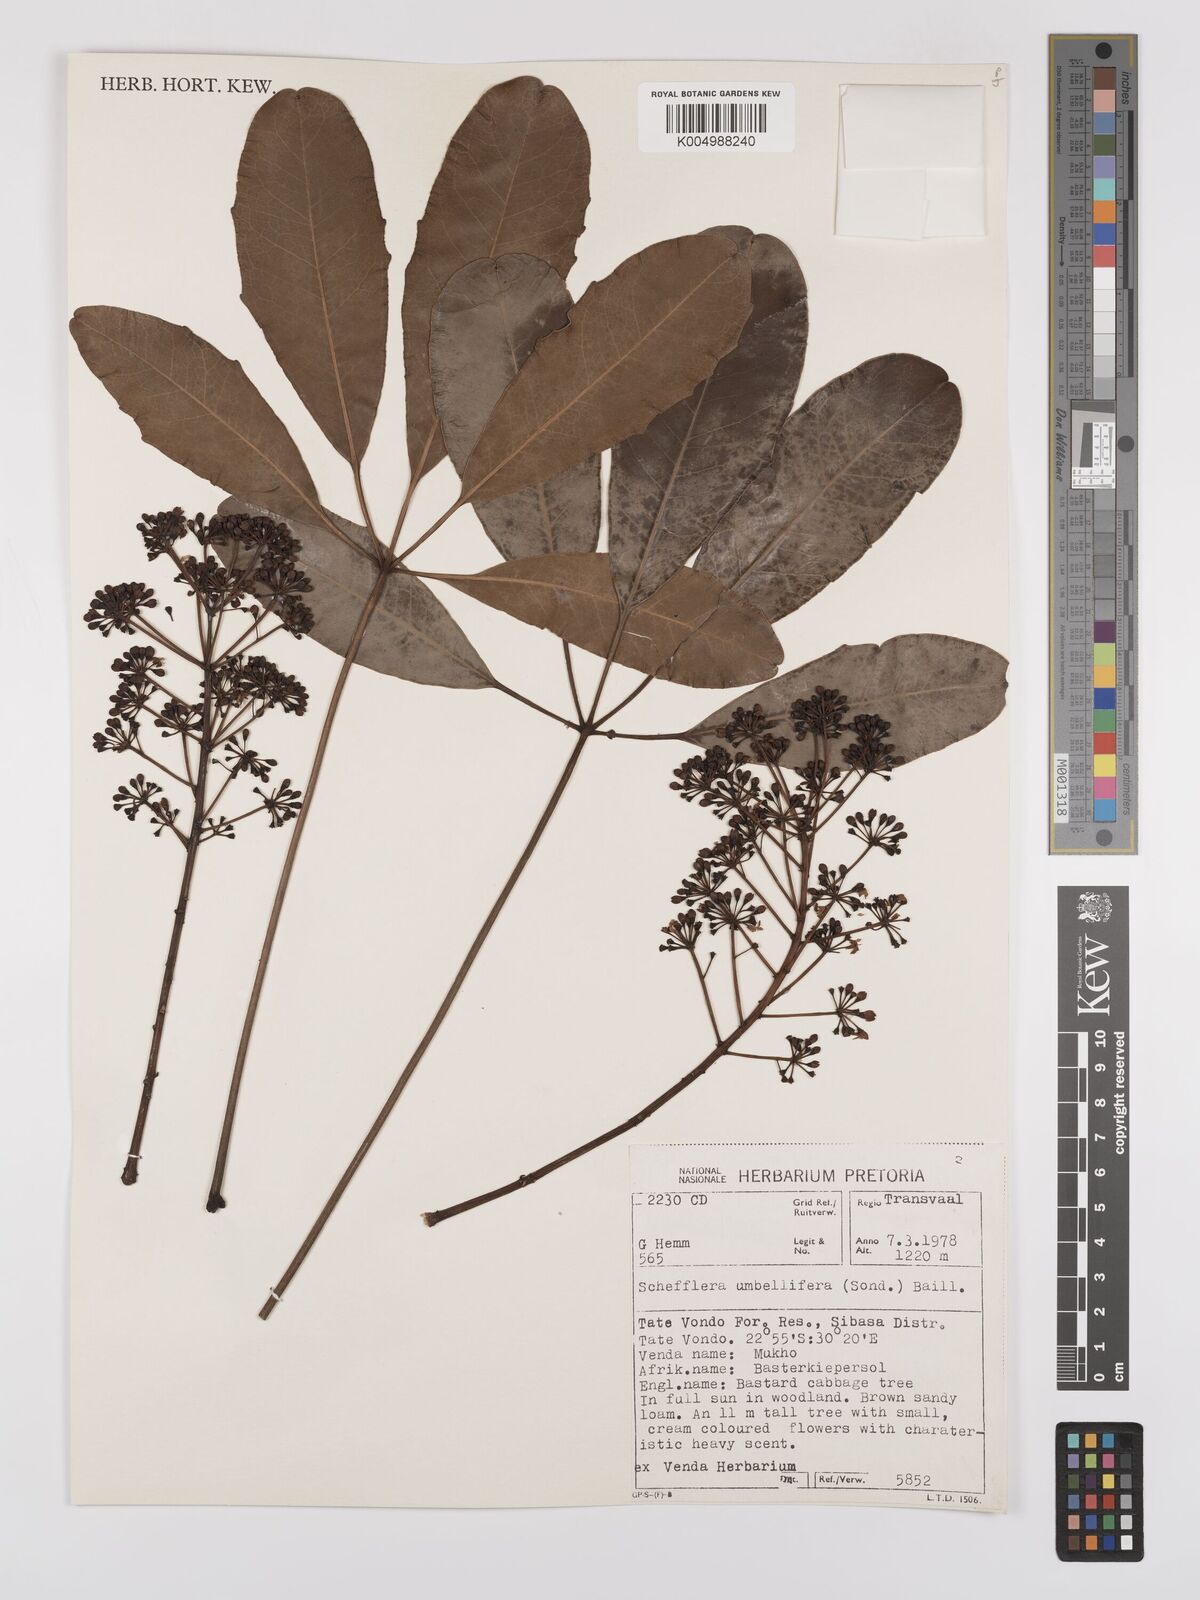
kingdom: Plantae
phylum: Tracheophyta
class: Magnoliopsida
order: Apiales
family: Araliaceae
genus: Neocussonia
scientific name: Neocussonia umbellifera
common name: False cabbage tree
